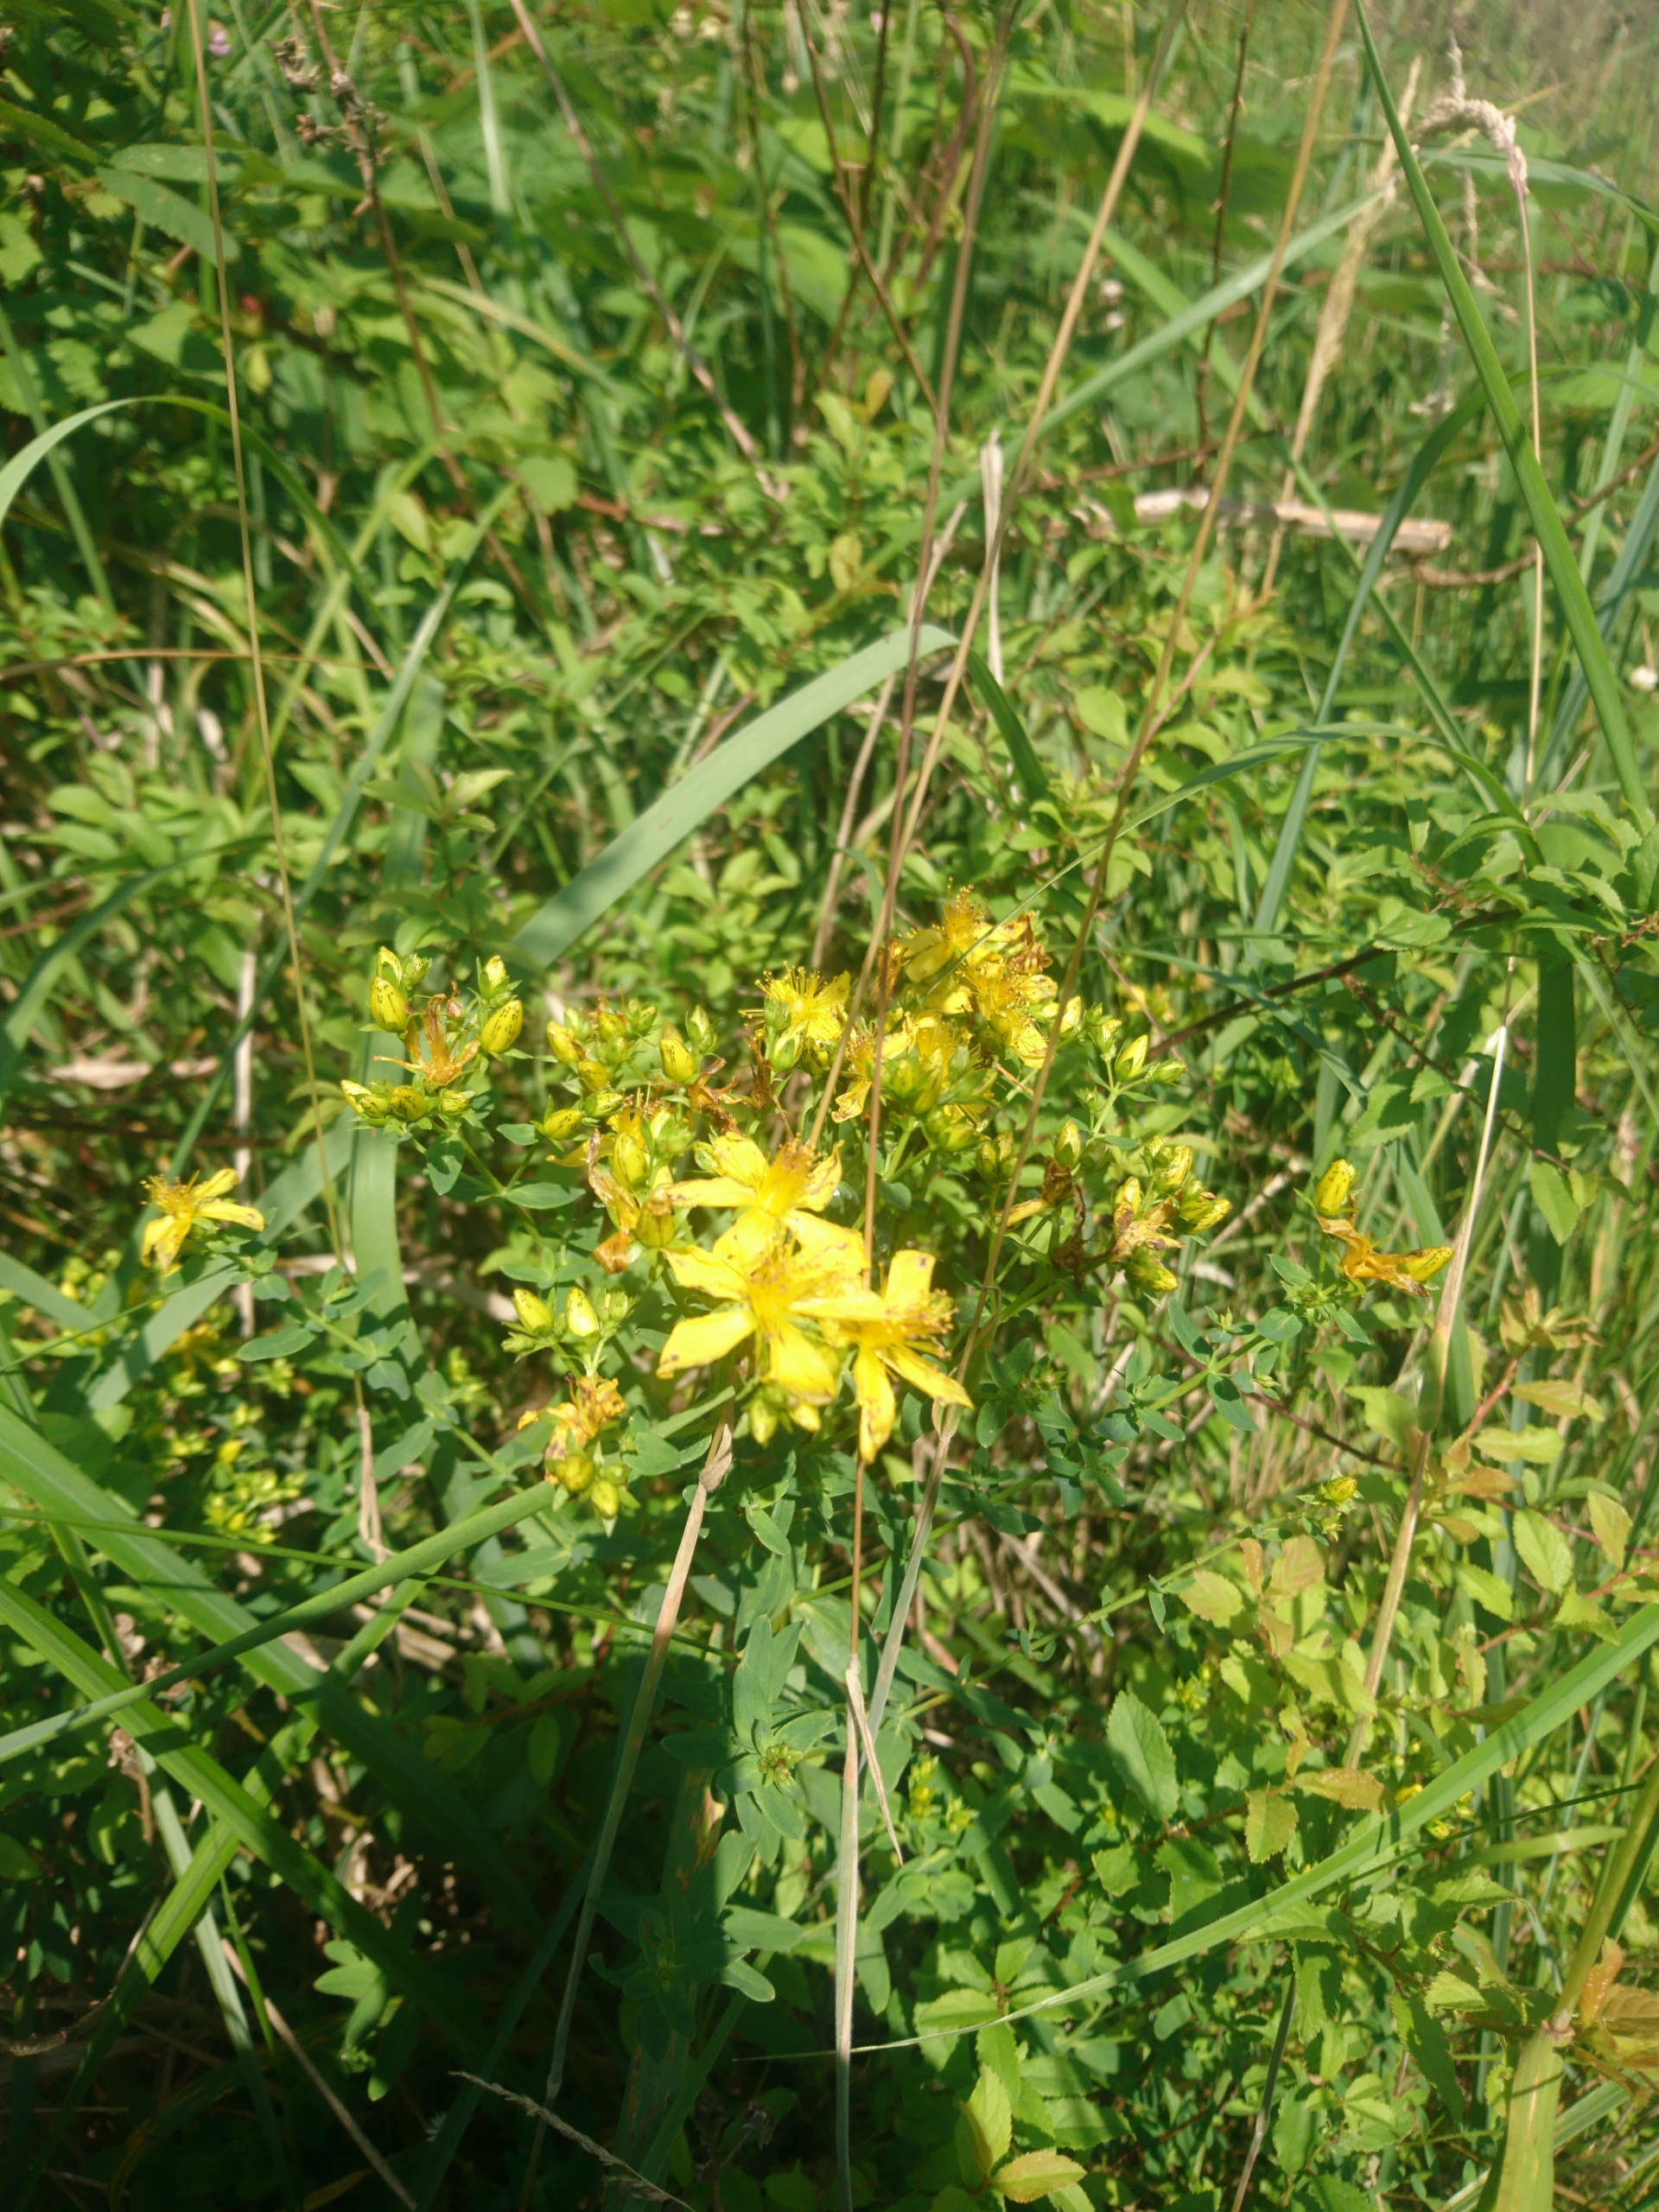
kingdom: Plantae
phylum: Tracheophyta
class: Magnoliopsida
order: Malpighiales
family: Hypericaceae
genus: Hypericum
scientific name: Hypericum perforatum
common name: Prikbladet perikon
